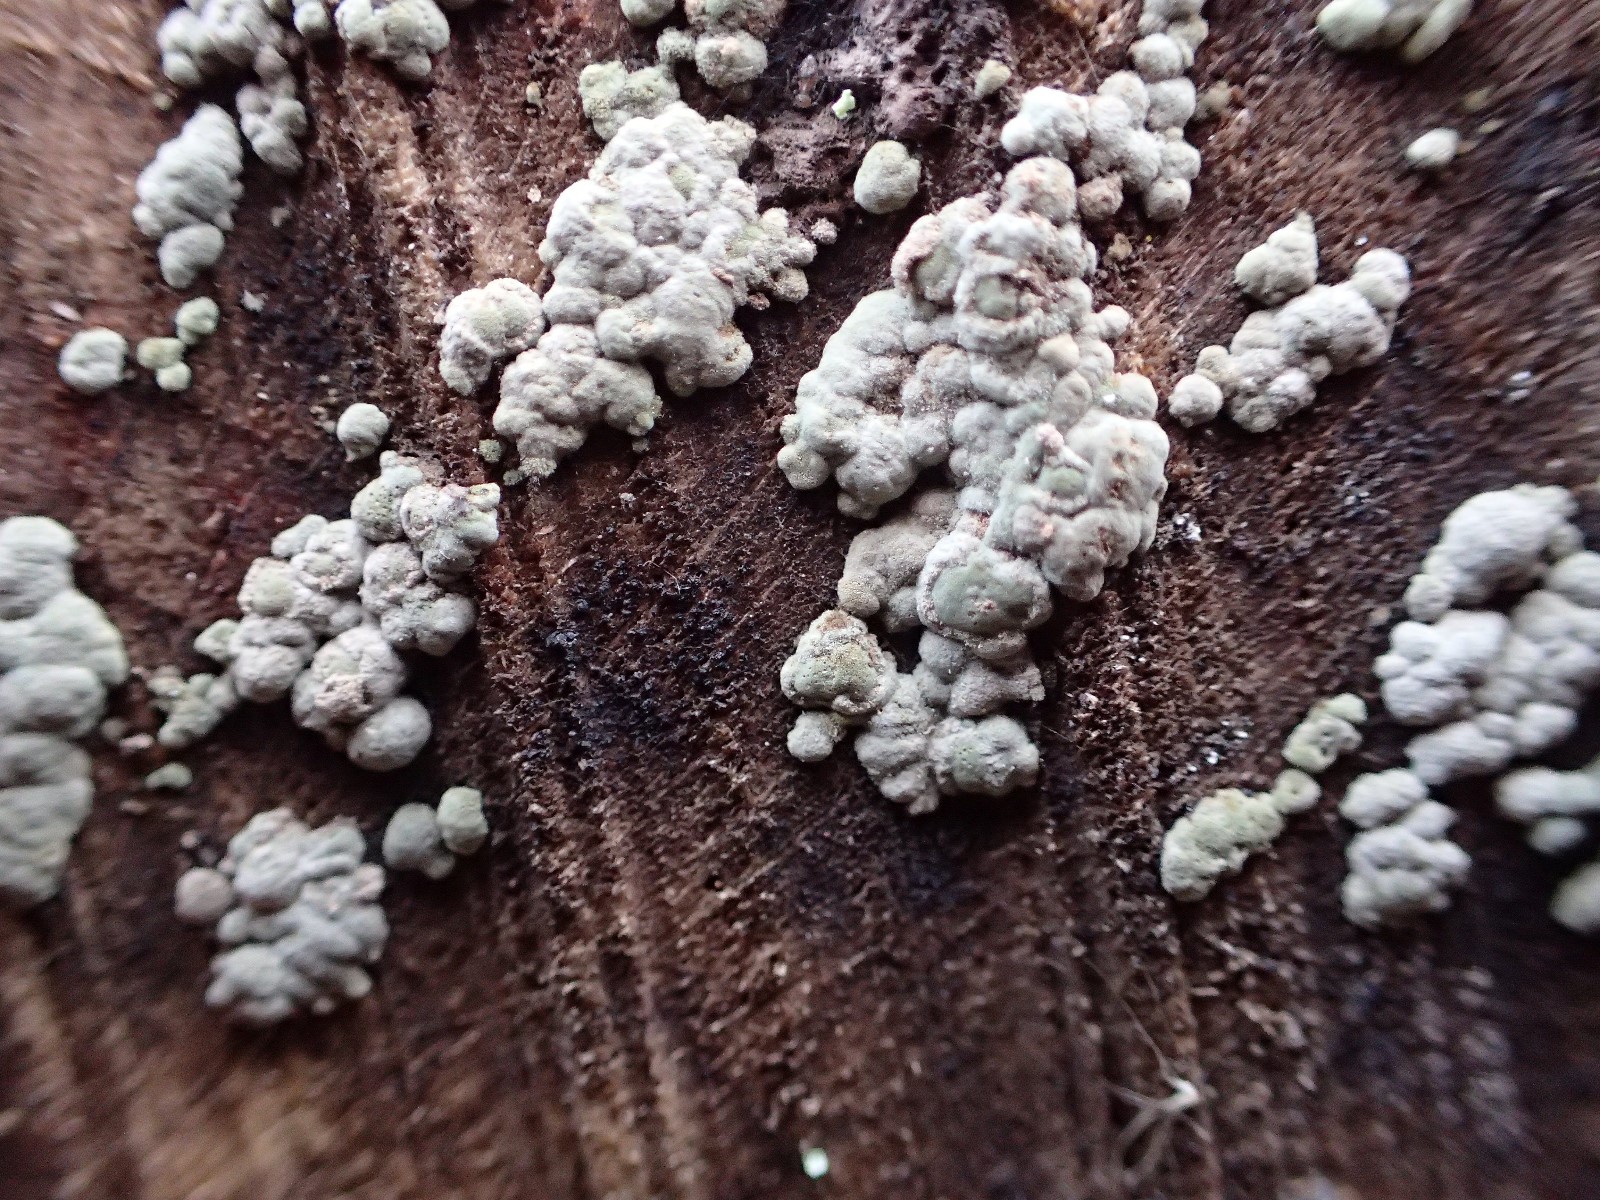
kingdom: Fungi
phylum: Ascomycota
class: Sordariomycetes
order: Xylariales
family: Hypoxylaceae
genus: Hypoxylon
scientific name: Hypoxylon fragiforme
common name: kuljordbær
